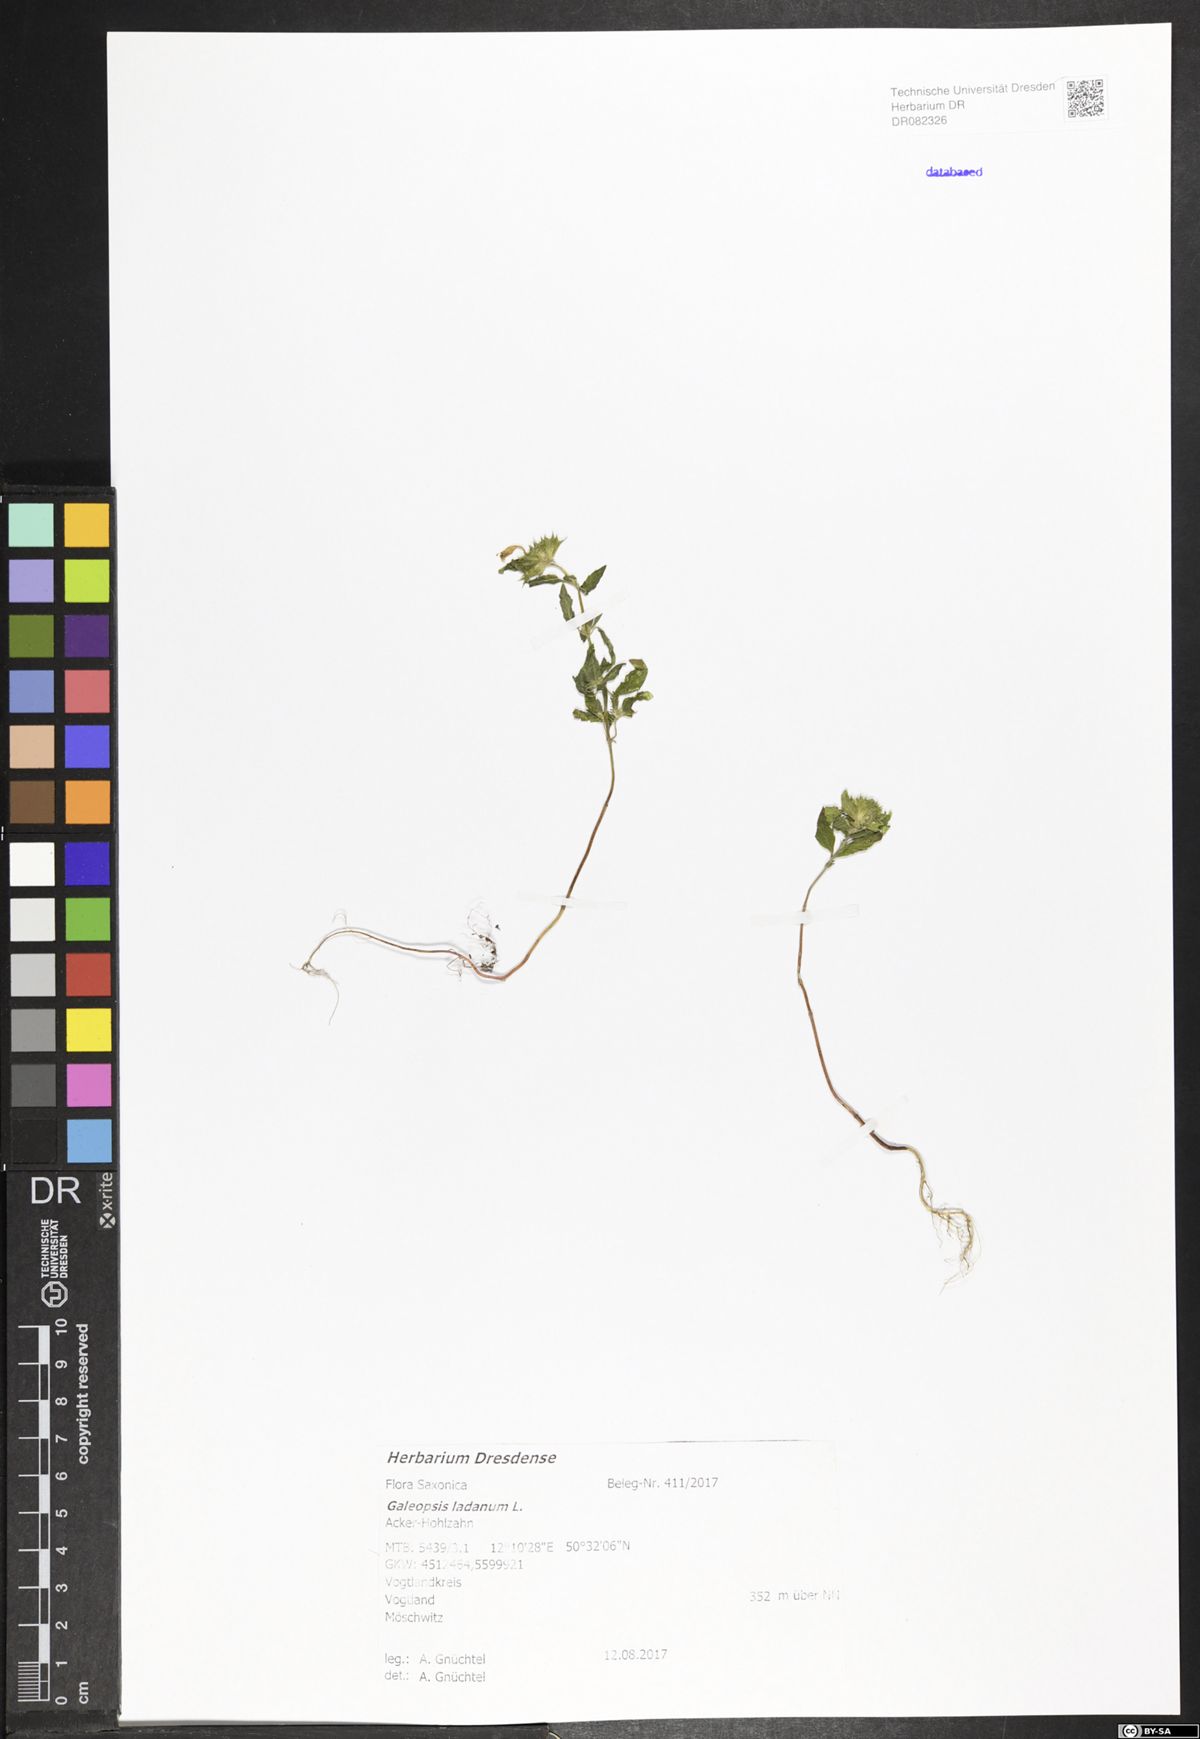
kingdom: Plantae
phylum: Tracheophyta
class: Magnoliopsida
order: Lamiales
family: Lamiaceae
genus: Galeopsis
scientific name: Galeopsis ladanum
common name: Broad-leaved hemp-nettle
